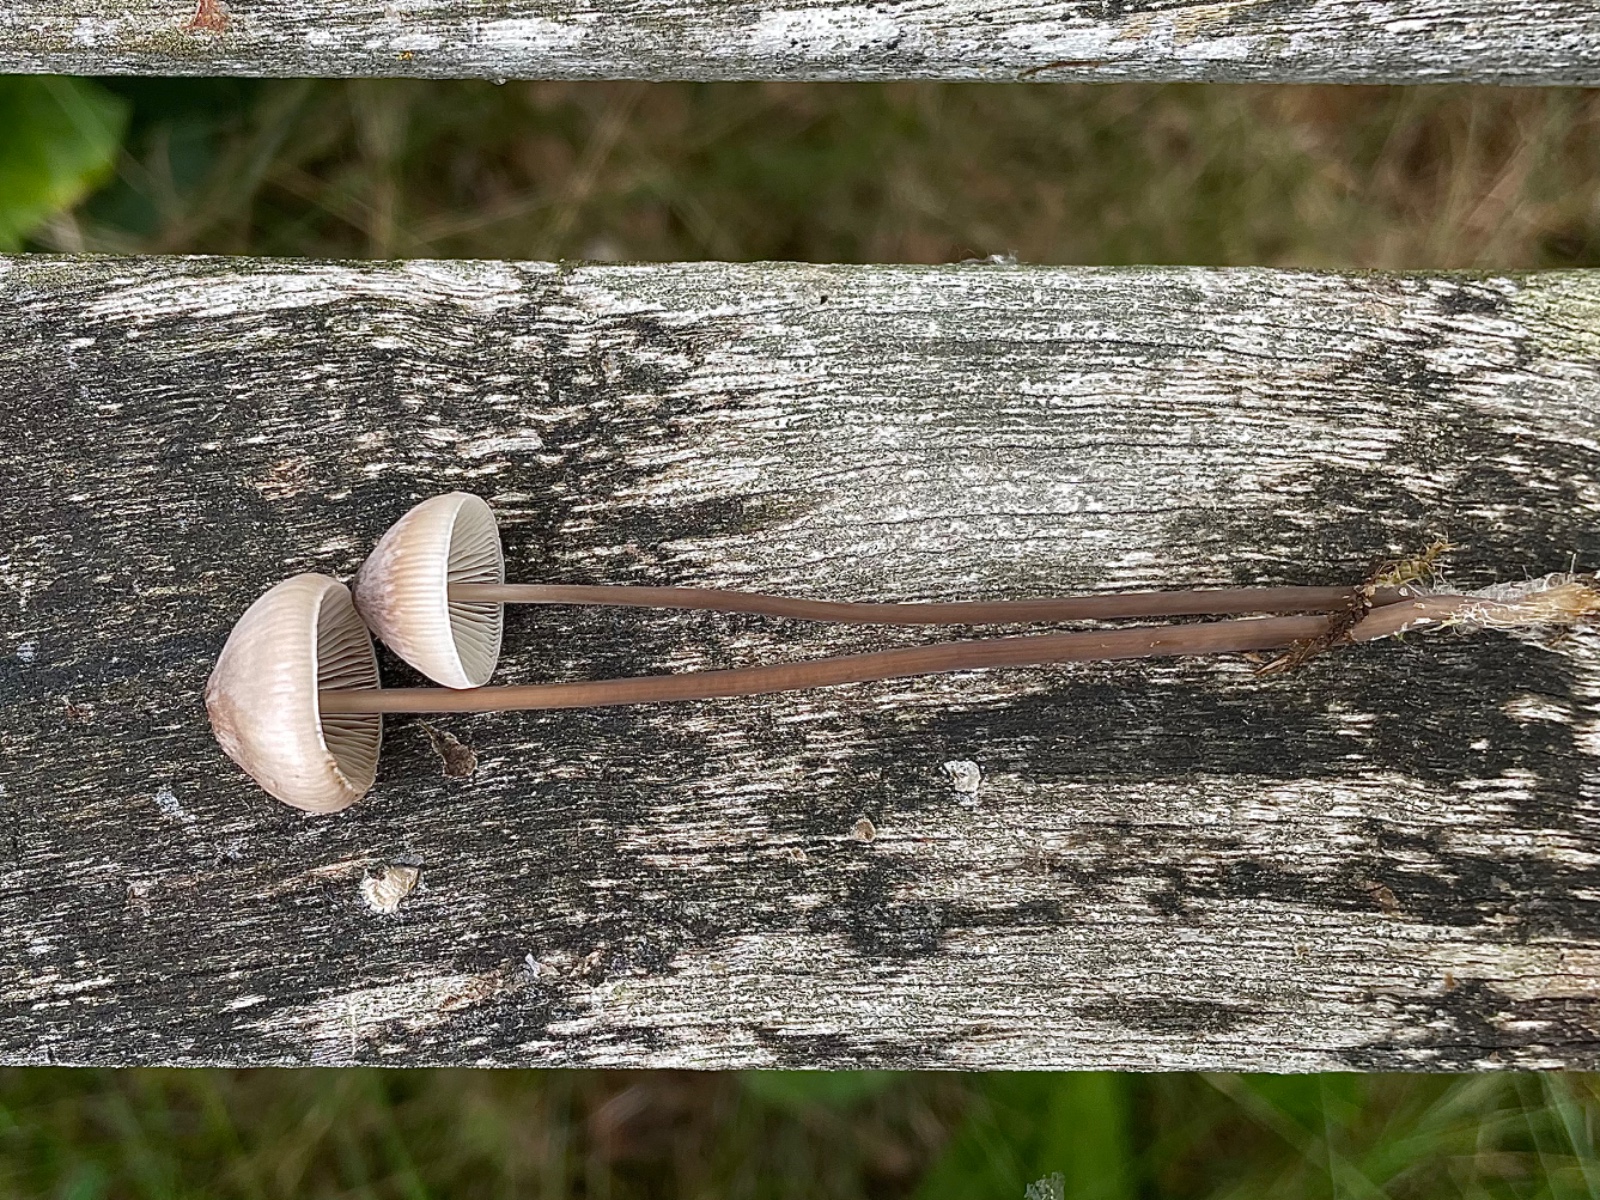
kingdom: Fungi
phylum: Basidiomycota
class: Agaricomycetes
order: Agaricales
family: Mycenaceae
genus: Mycena
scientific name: Mycena
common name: huesvamp
